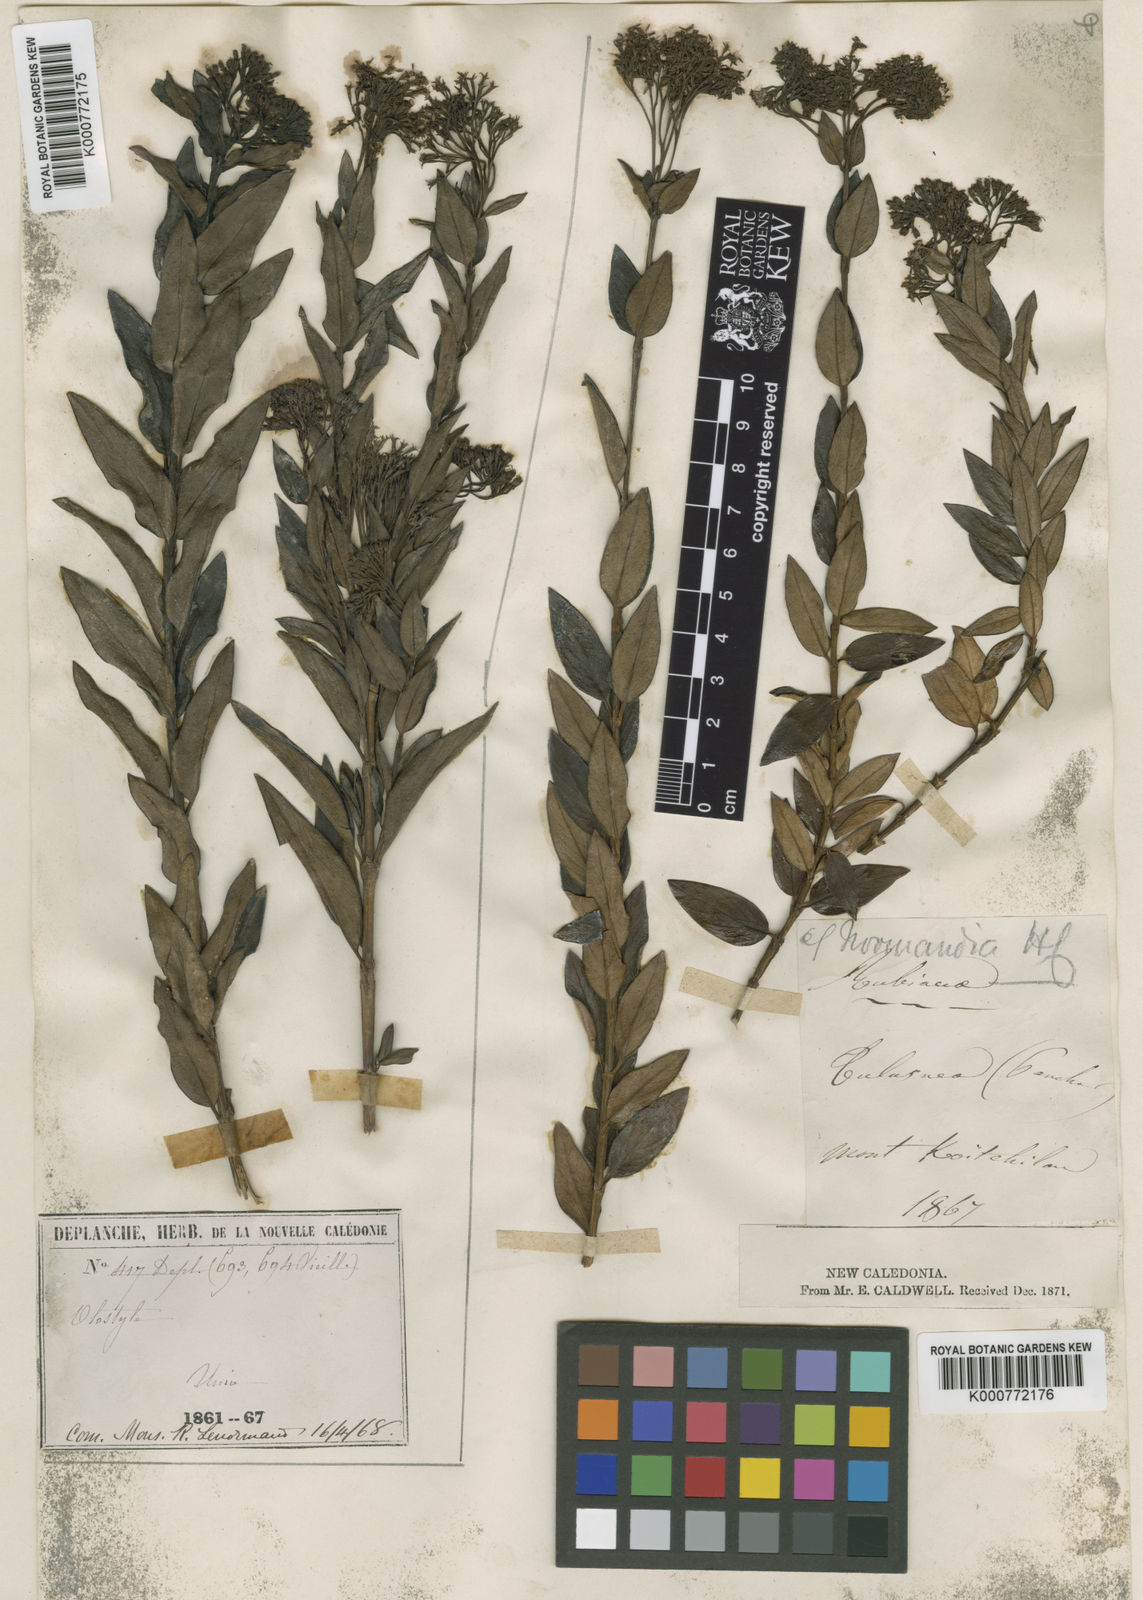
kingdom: Plantae
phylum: Tracheophyta
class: Magnoliopsida
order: Gentianales
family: Rubiaceae
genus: Normandia
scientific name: Normandia neocaledonica
